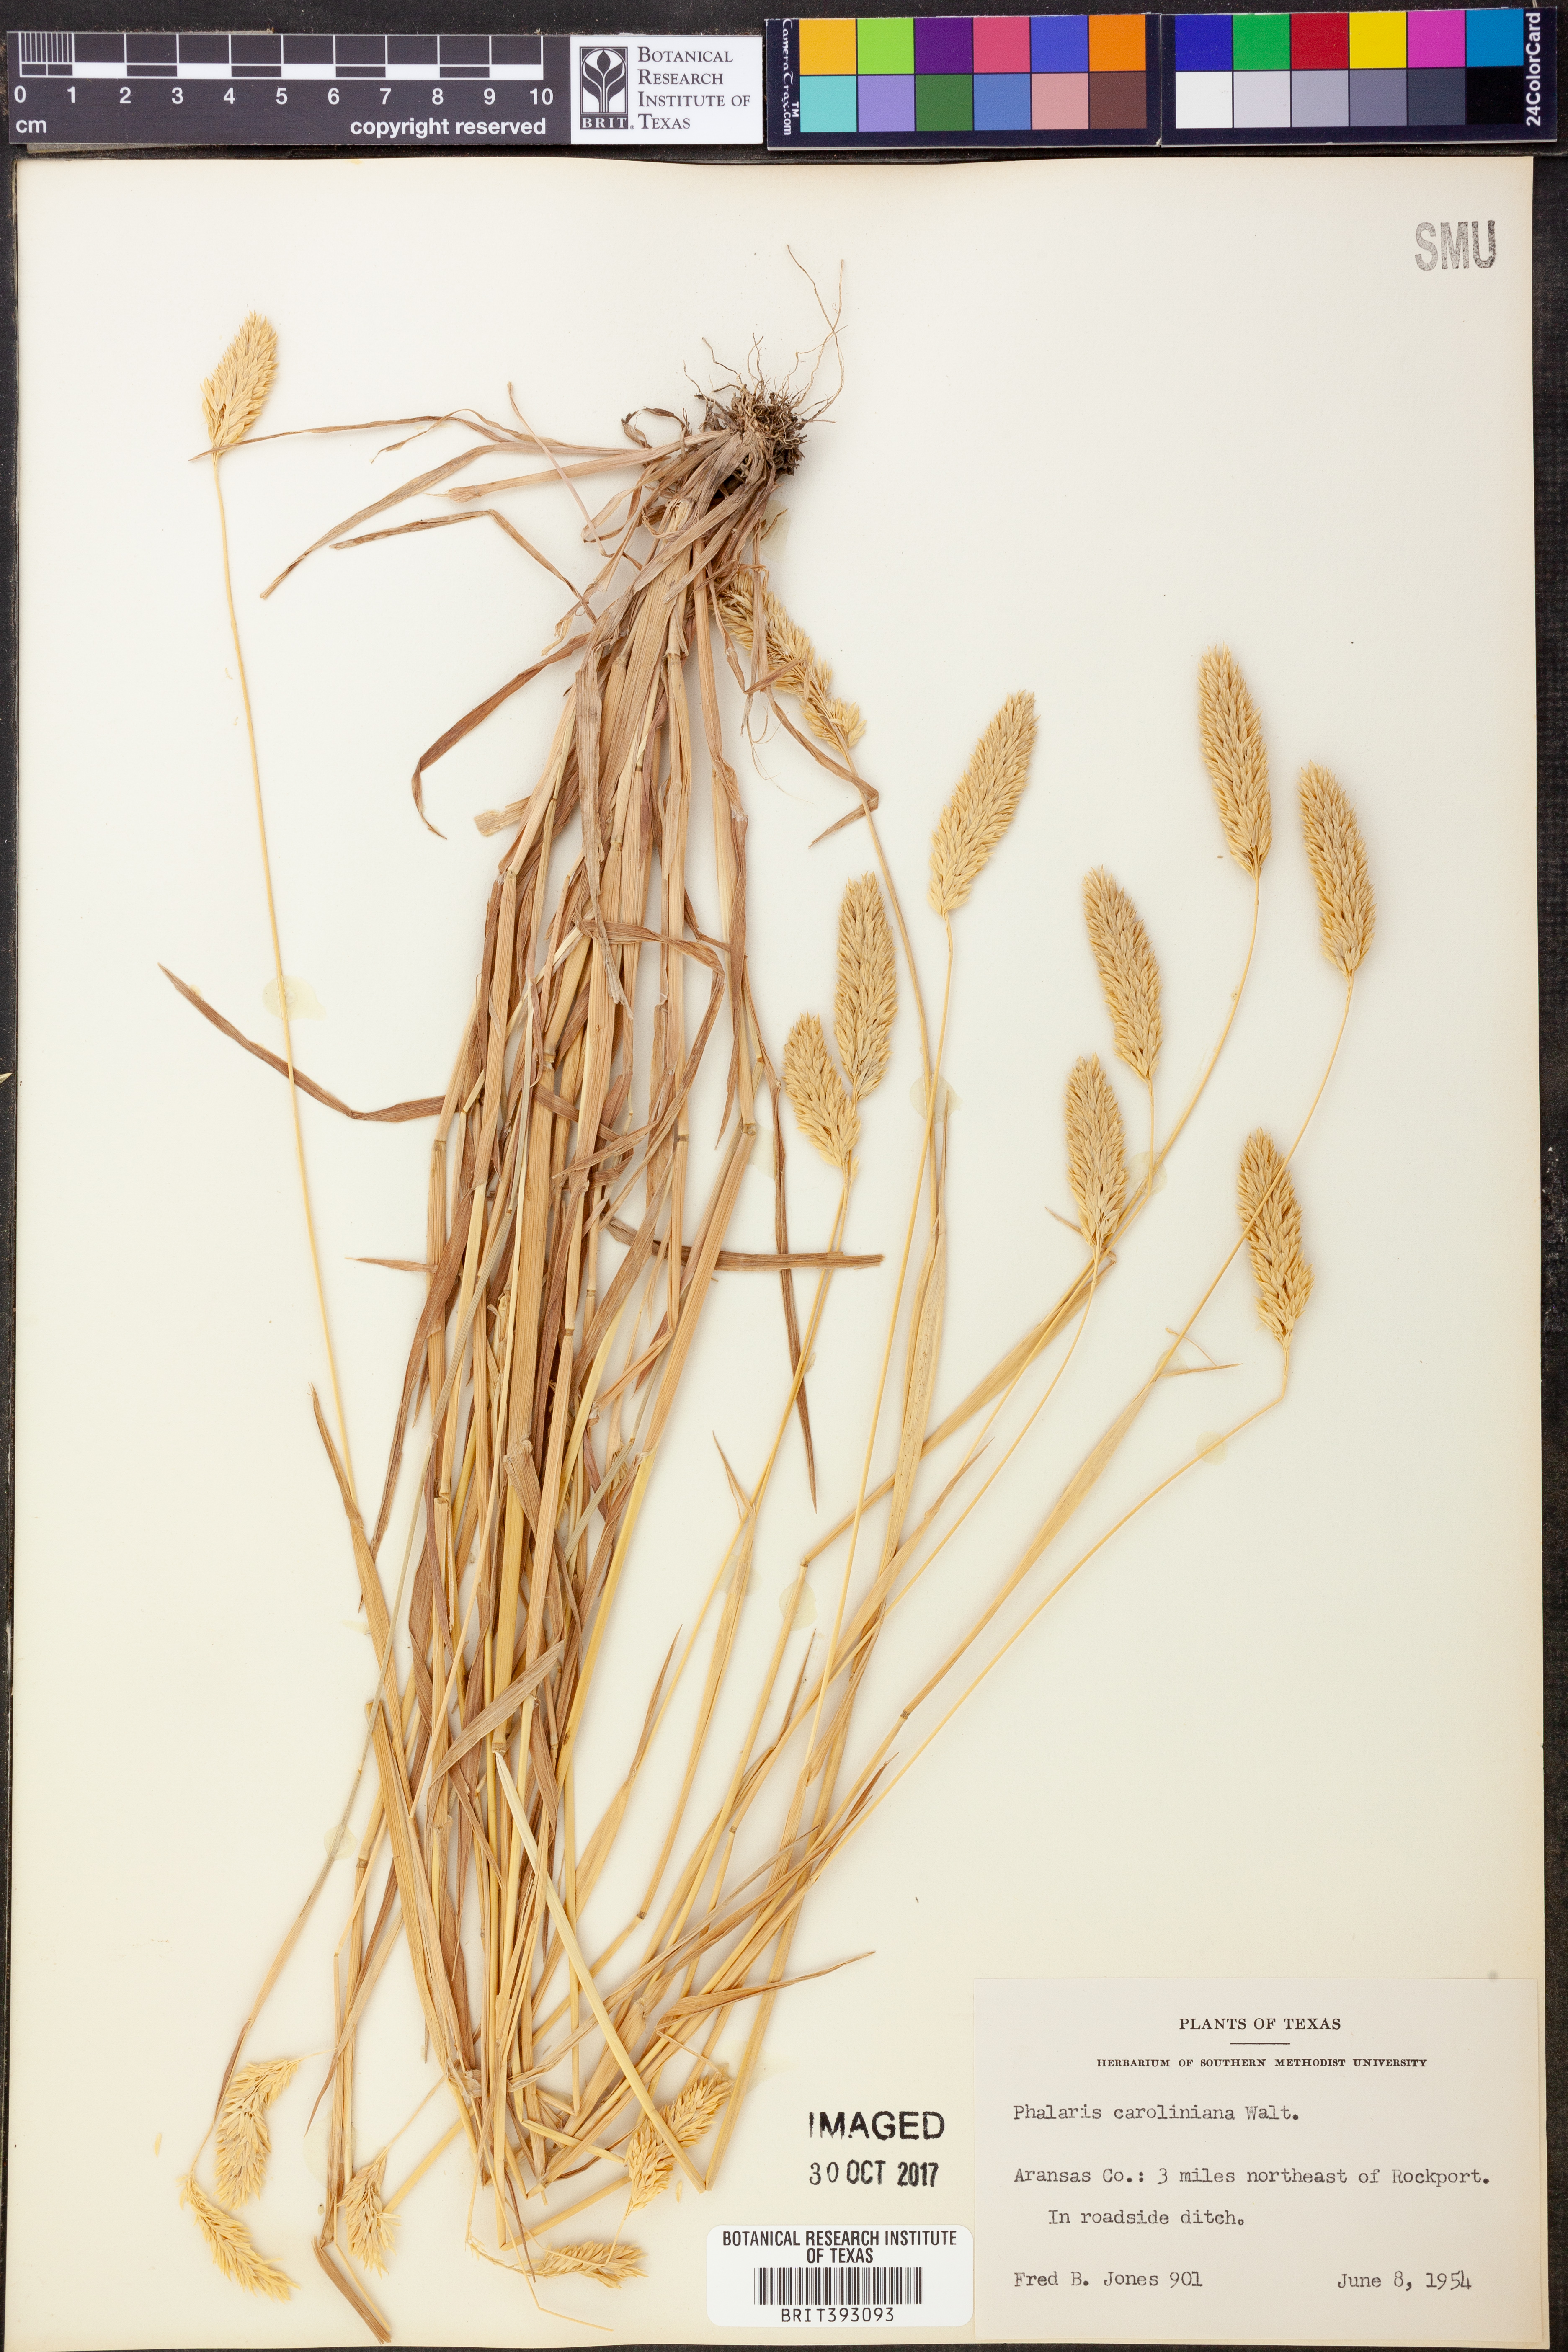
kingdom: Plantae
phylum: Tracheophyta
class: Liliopsida
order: Poales
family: Poaceae
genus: Phalaris
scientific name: Phalaris caroliniana
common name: May grass
